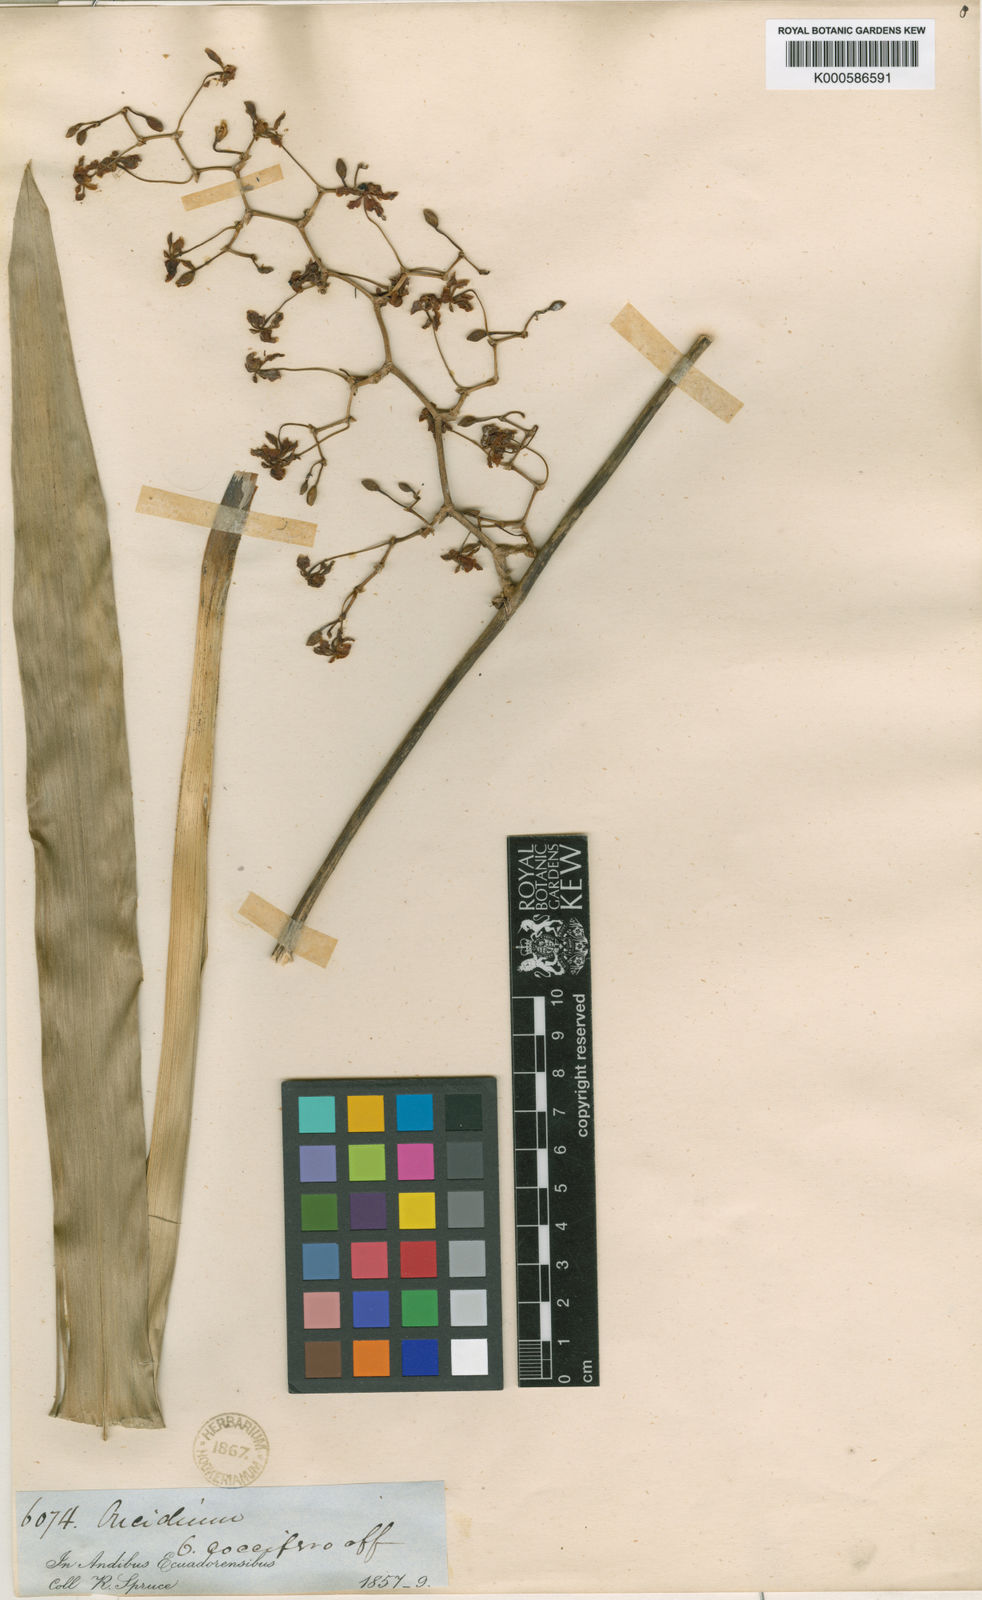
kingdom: Plantae
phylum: Tracheophyta
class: Liliopsida
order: Asparagales
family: Orchidaceae
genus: Cyrtochilum
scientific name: Cyrtochilum umbonatum
